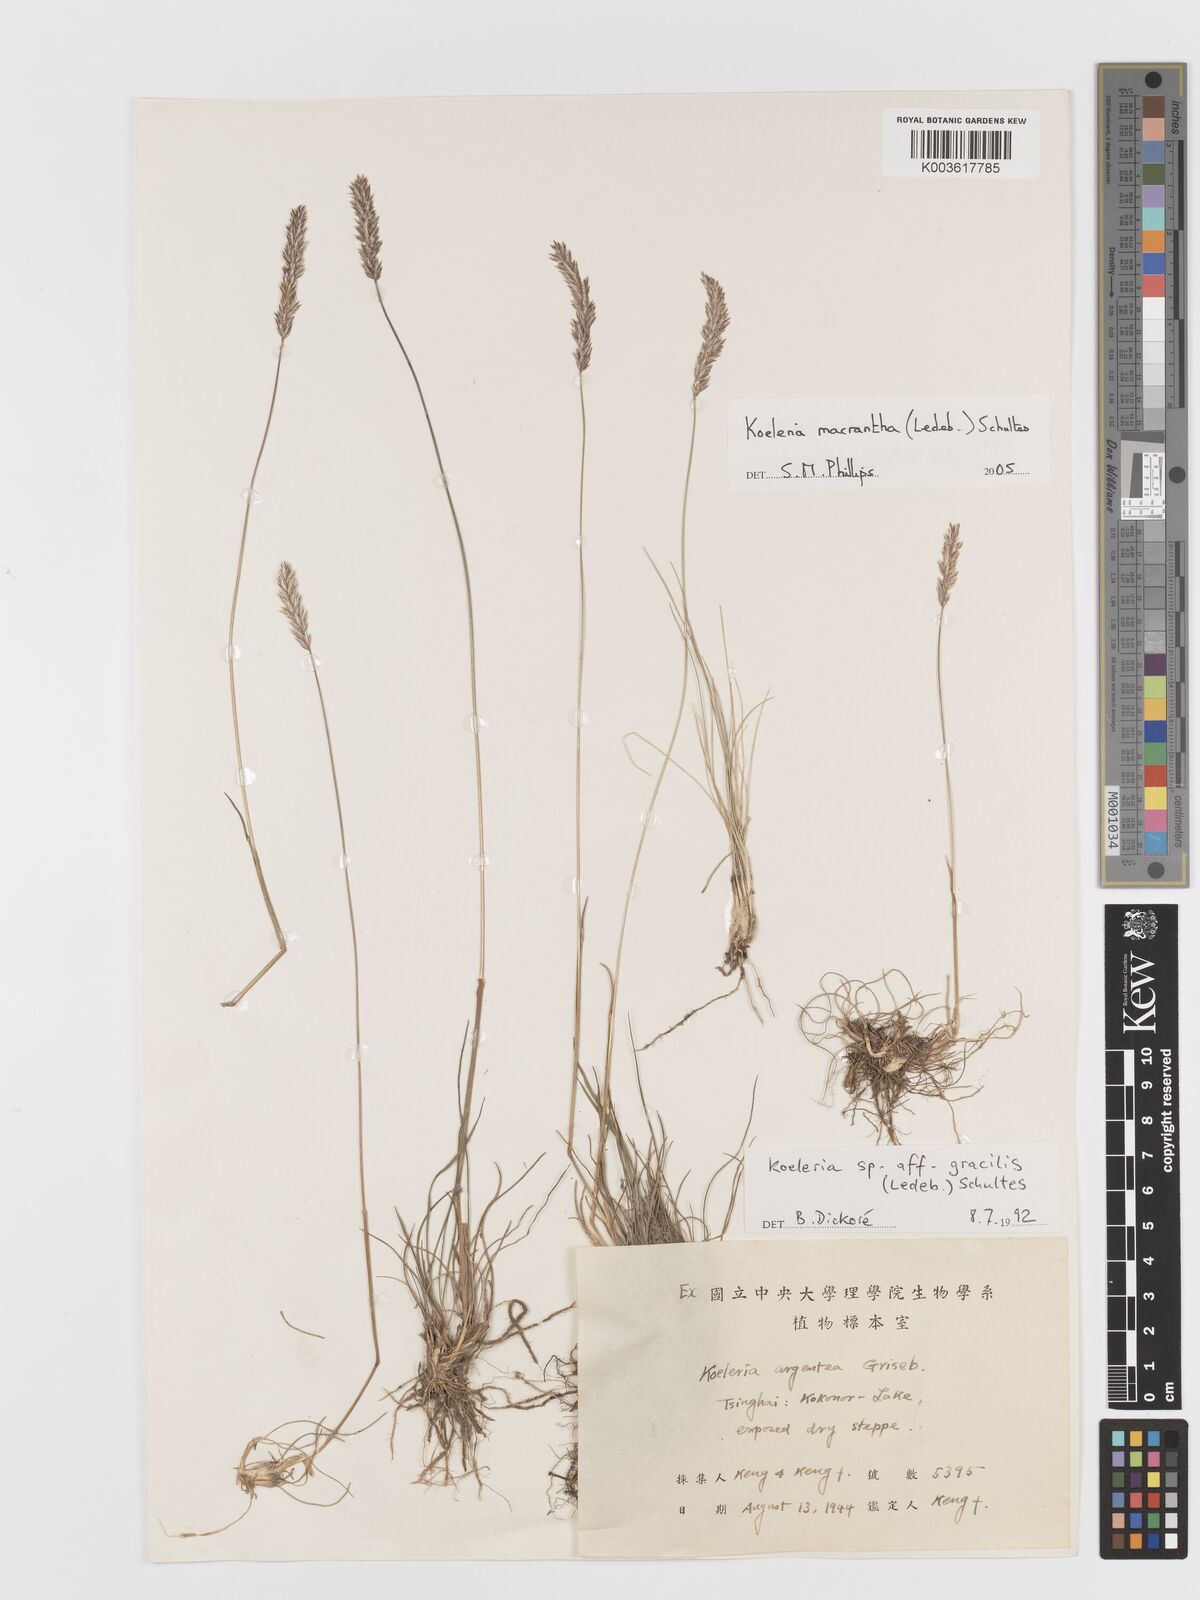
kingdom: Plantae
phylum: Tracheophyta
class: Liliopsida
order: Poales
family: Poaceae
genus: Koeleria
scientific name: Koeleria macrantha
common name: Crested hair-grass
